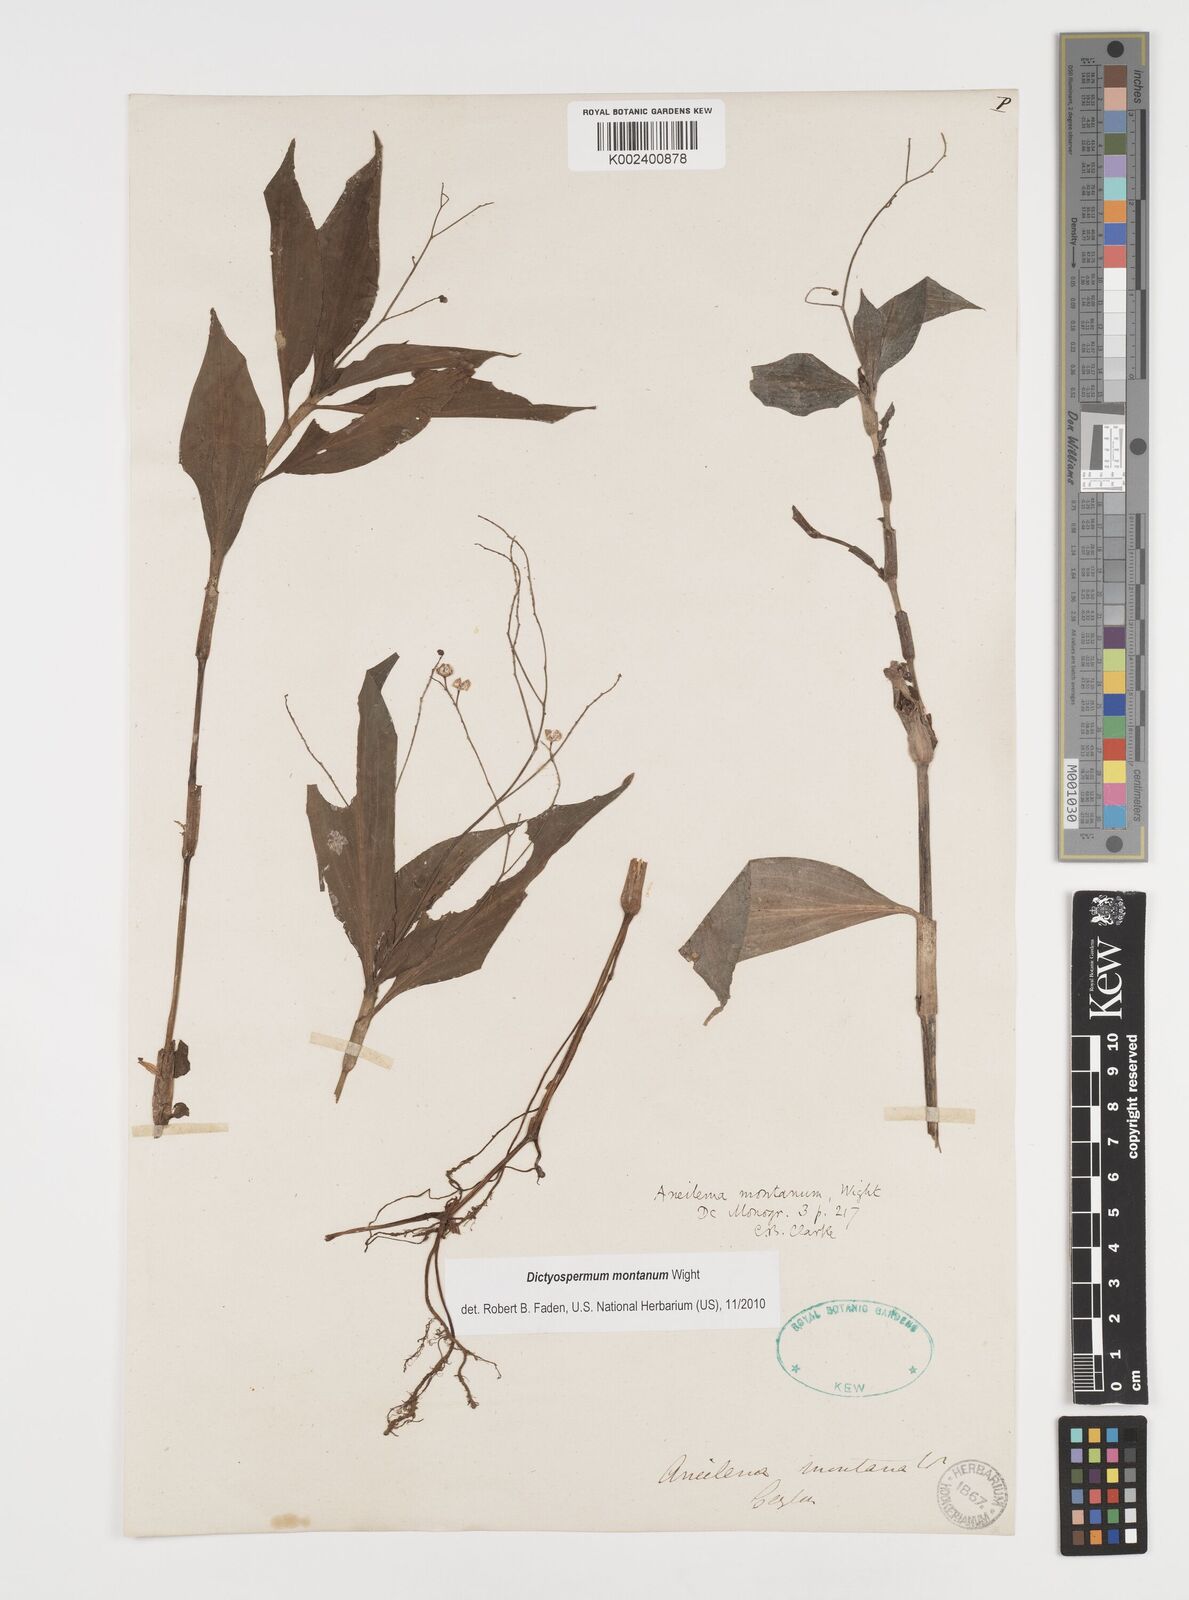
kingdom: Plantae
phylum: Tracheophyta
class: Liliopsida
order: Commelinales
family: Commelinaceae
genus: Dictyospermum
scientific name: Dictyospermum montanum
